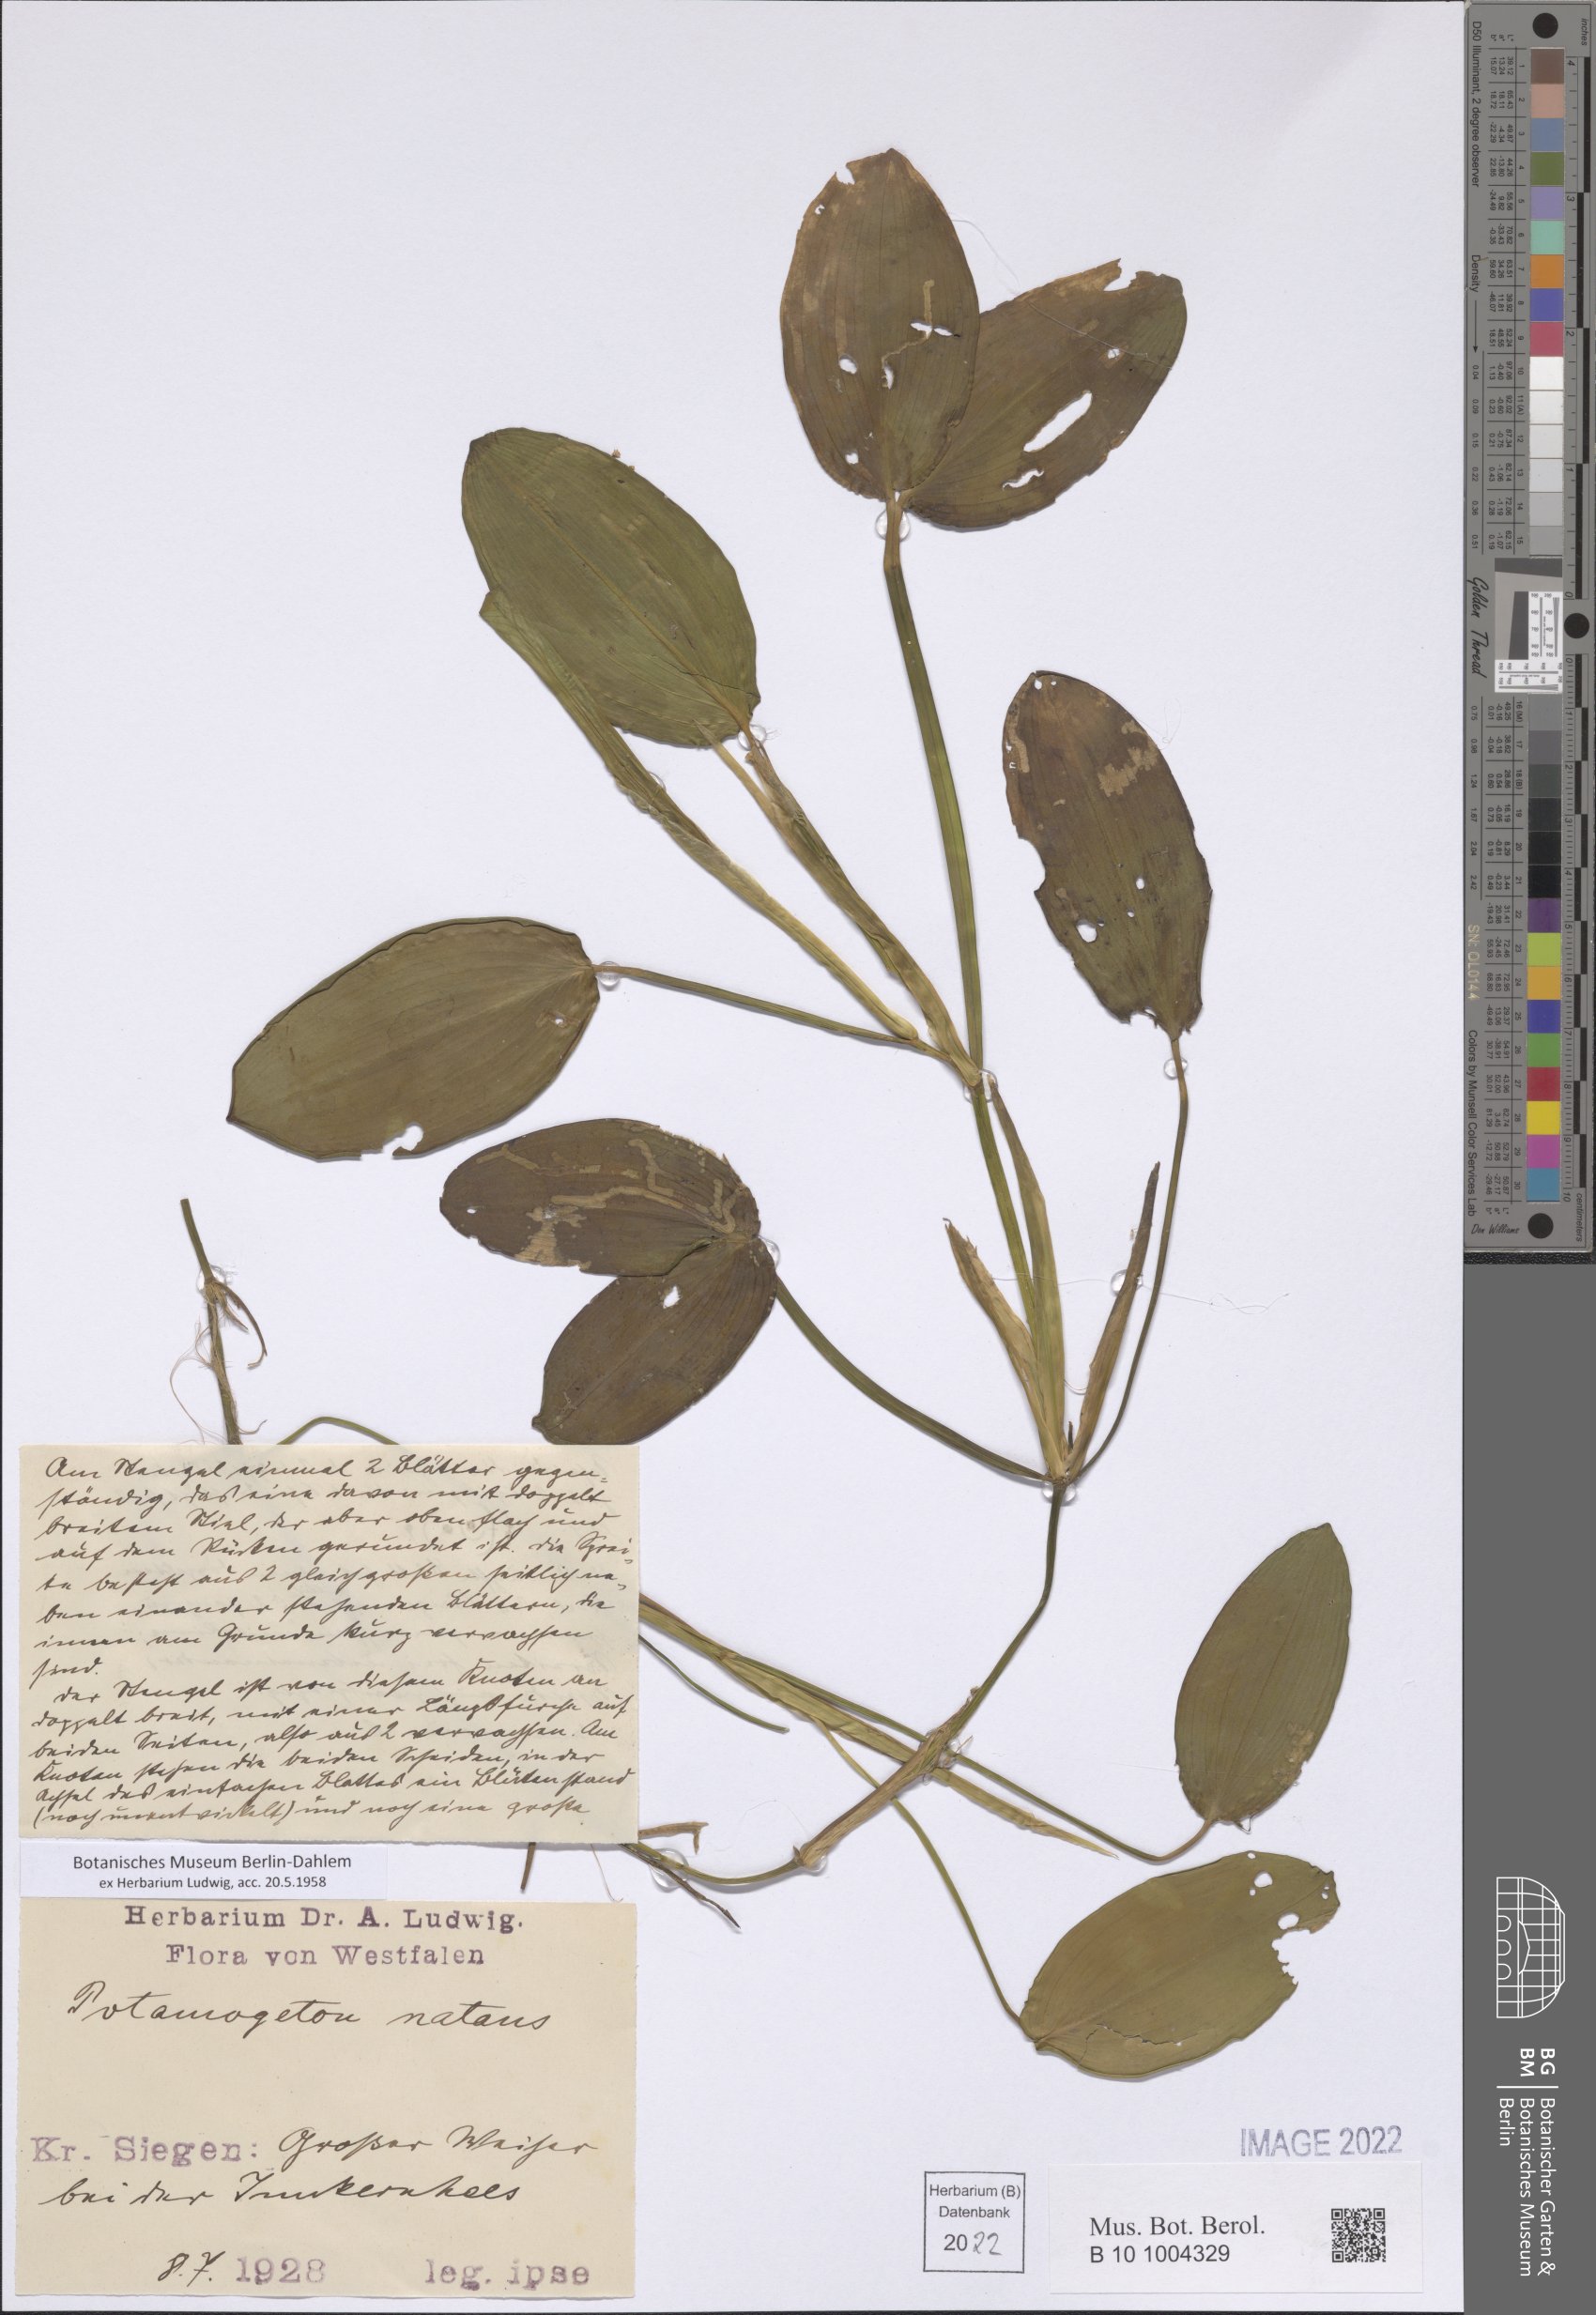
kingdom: Plantae
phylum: Tracheophyta
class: Liliopsida
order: Alismatales
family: Potamogetonaceae
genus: Potamogeton
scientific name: Potamogeton natans
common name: Broad-leaved pondweed
